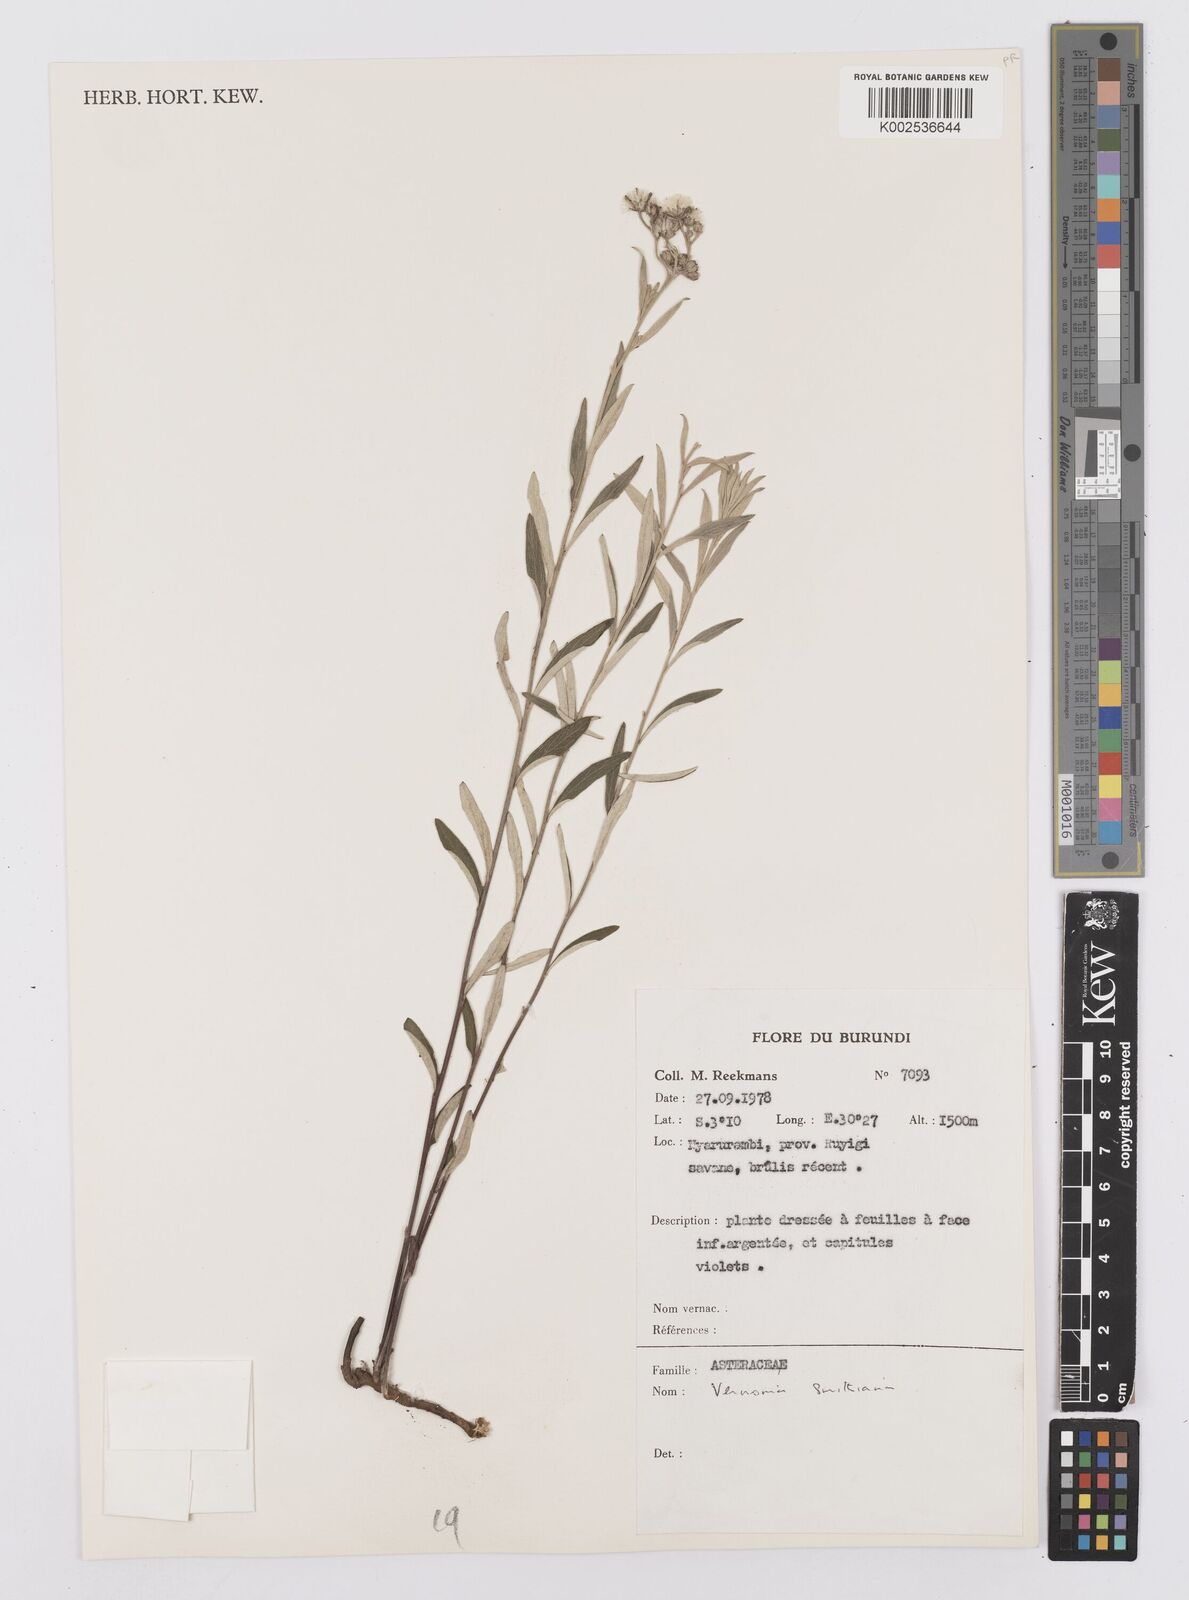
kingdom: Plantae
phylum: Tracheophyta
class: Magnoliopsida
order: Asterales
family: Asteraceae
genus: Hilliardiella
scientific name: Hilliardiella smithiana
